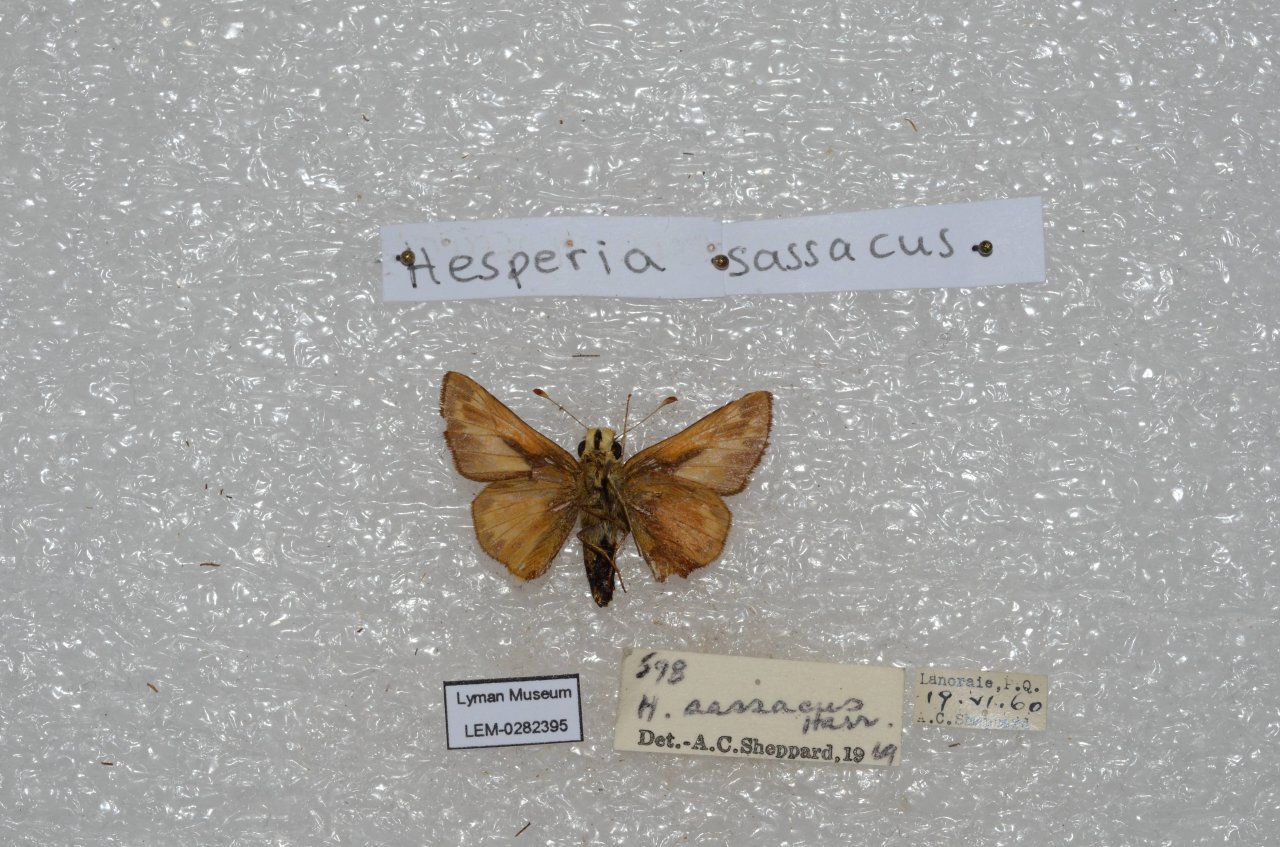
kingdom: Animalia
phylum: Arthropoda
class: Insecta
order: Lepidoptera
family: Hesperiidae
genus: Hesperia
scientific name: Hesperia sassacus
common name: Sassacus Skipper
